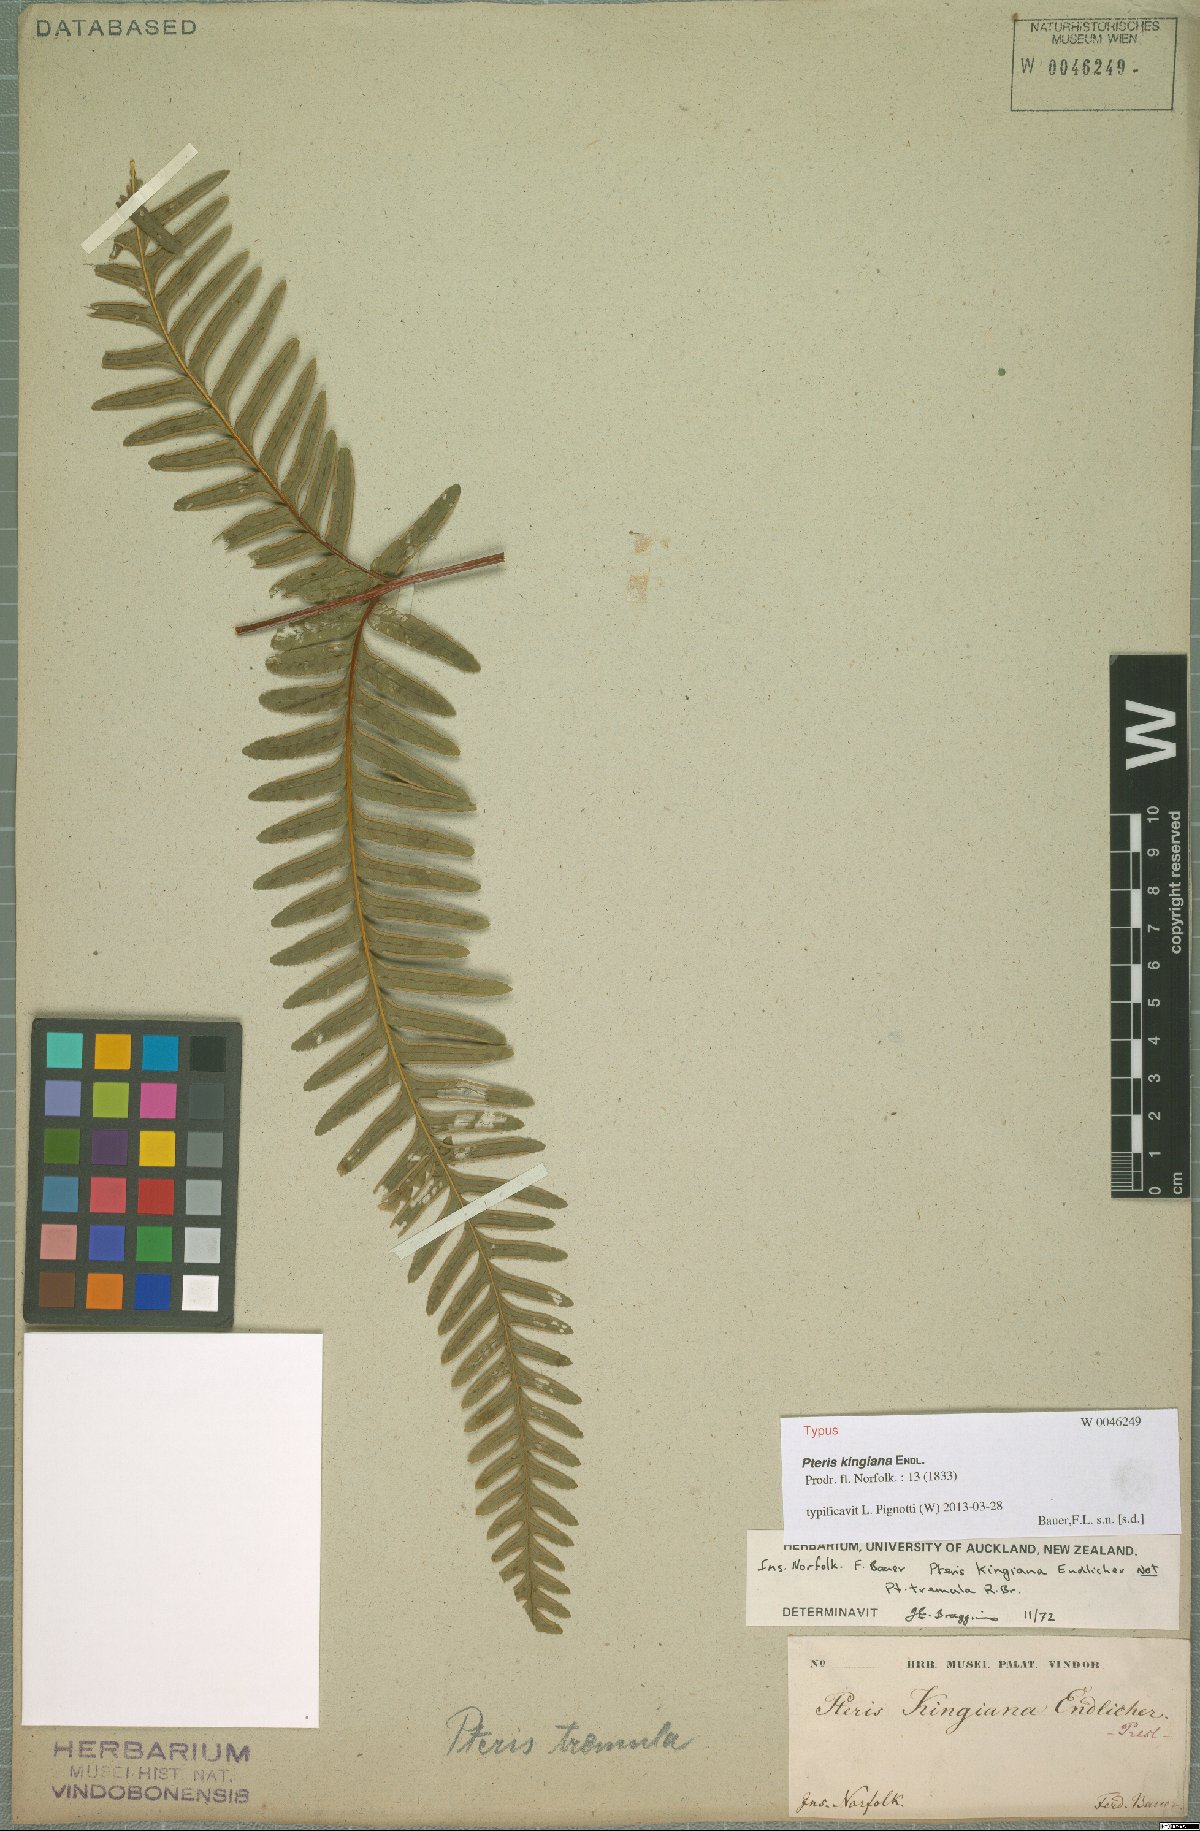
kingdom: Plantae
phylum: Tracheophyta
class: Polypodiopsida
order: Polypodiales
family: Pteridaceae
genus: Pteris
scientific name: Pteris kingiana
